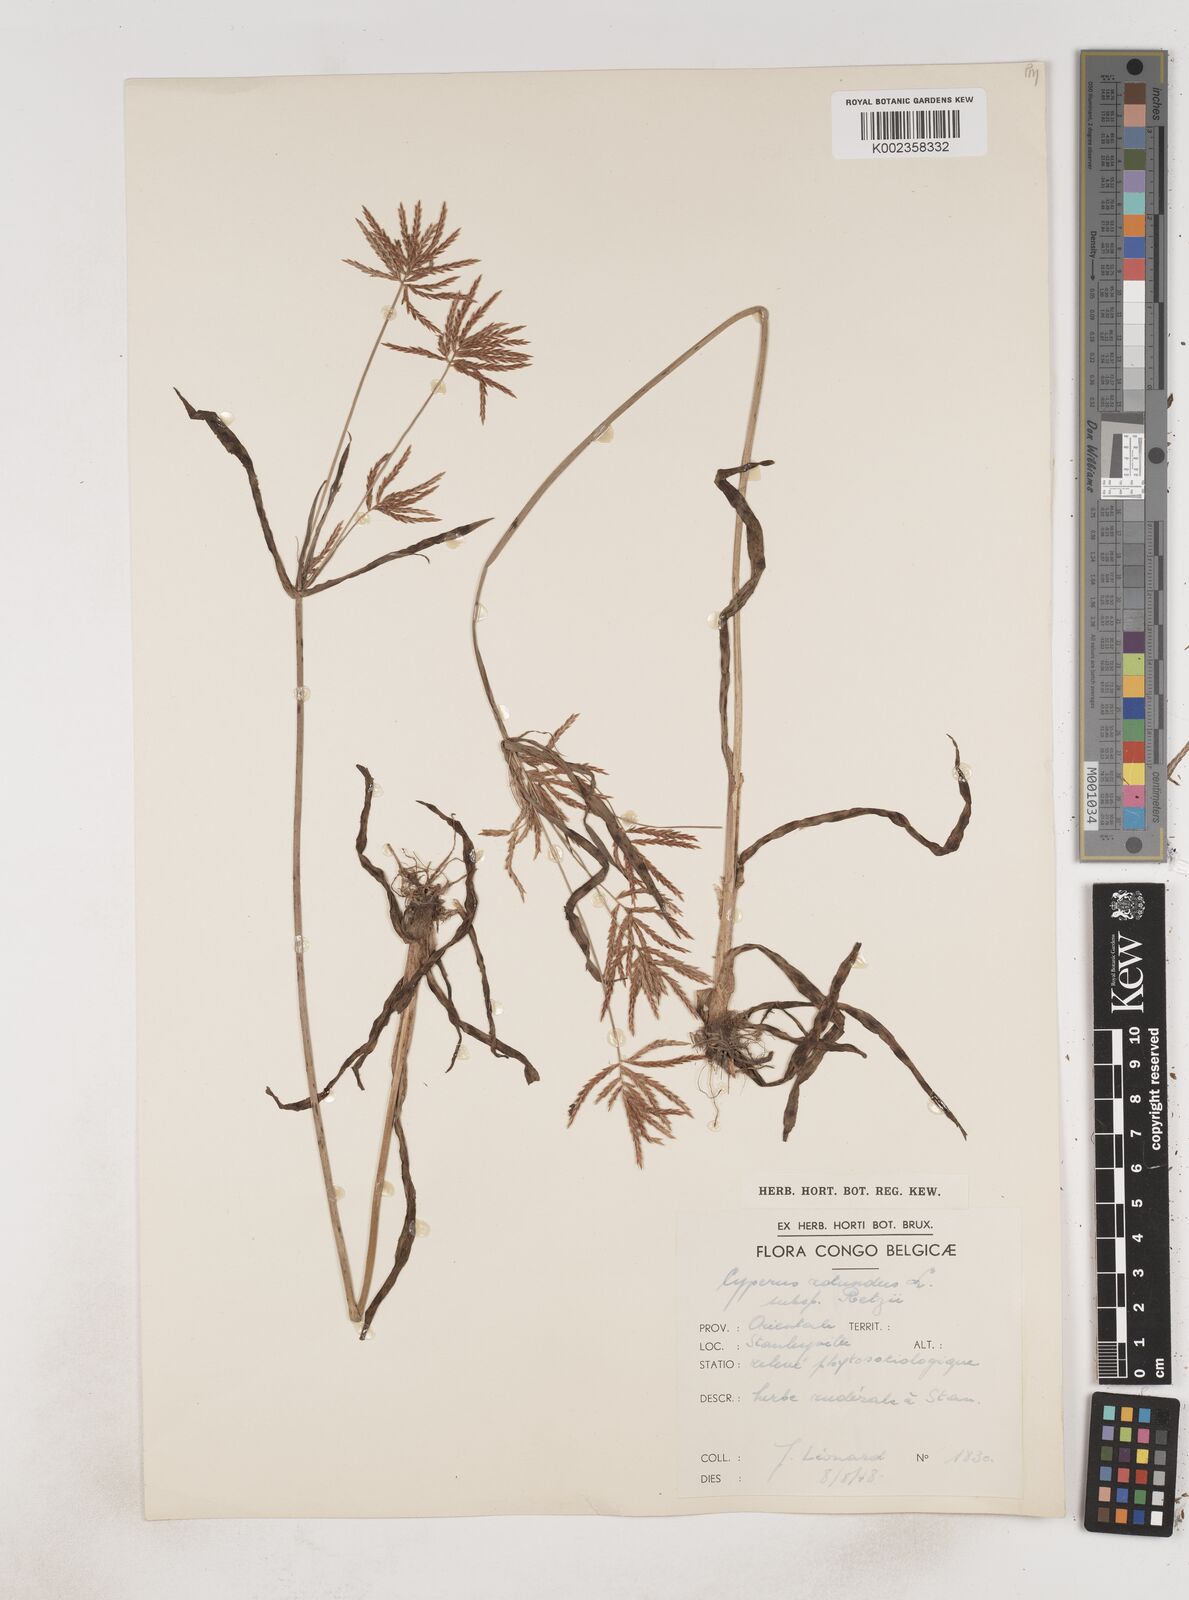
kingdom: Plantae
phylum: Tracheophyta
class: Liliopsida
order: Poales
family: Cyperaceae
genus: Cyperus
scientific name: Cyperus tuberosus
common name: Nut grass
